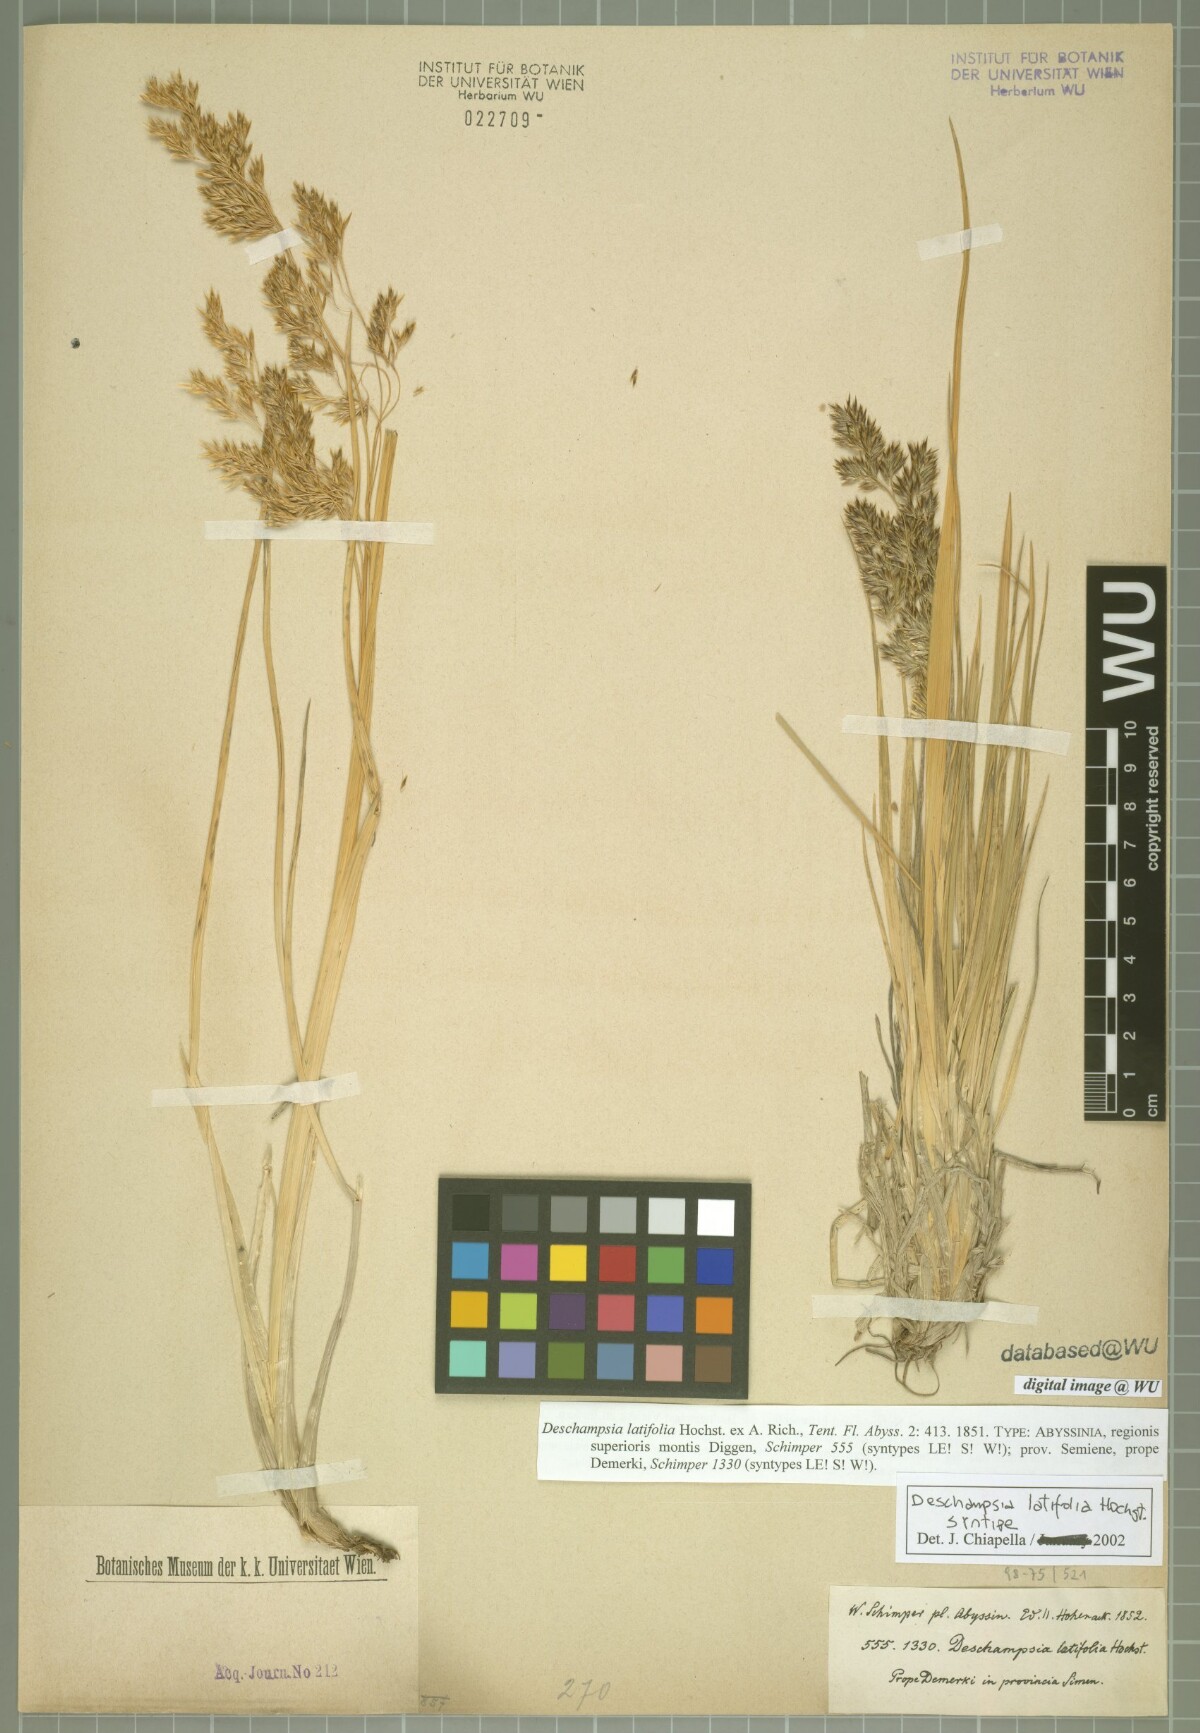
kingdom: Plantae
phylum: Tracheophyta
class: Liliopsida
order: Poales
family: Poaceae
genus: Deschampsia
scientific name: Deschampsia cespitosa
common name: Tufted hair-grass
